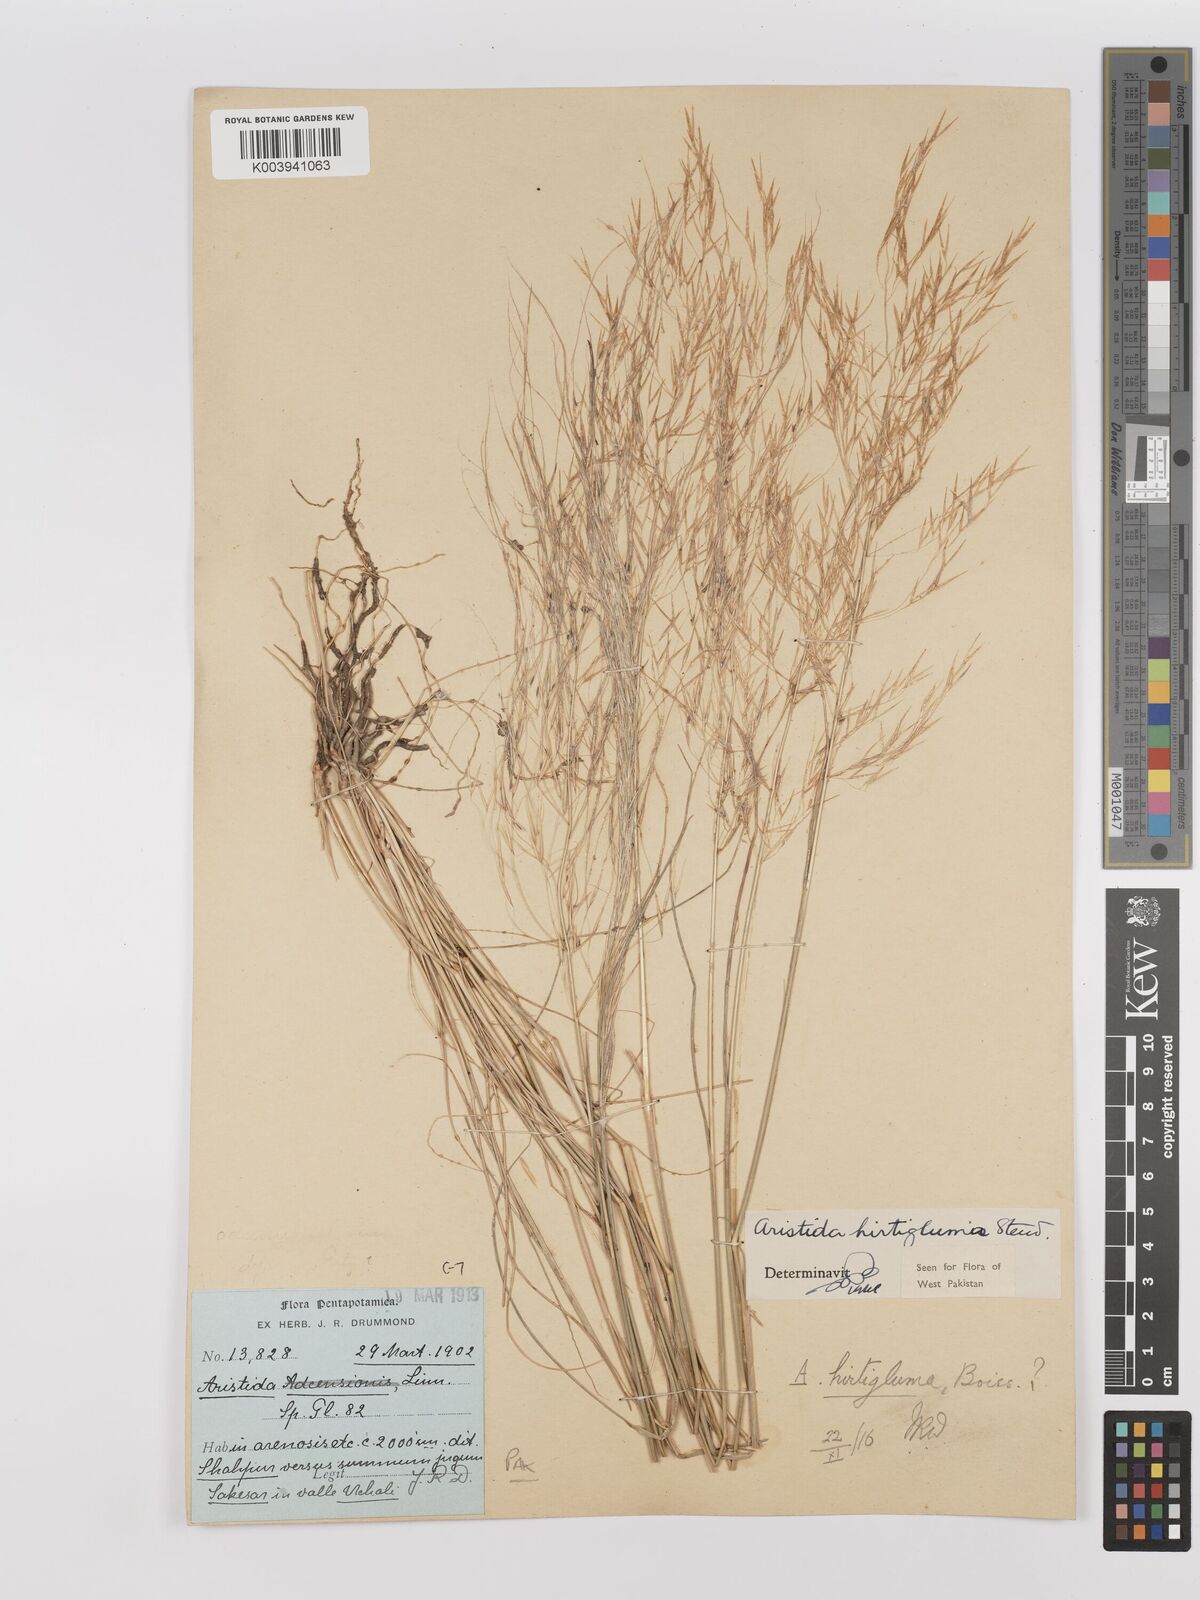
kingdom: Plantae
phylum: Tracheophyta
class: Liliopsida
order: Poales
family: Poaceae
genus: Stipagrostis
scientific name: Stipagrostis hirtigluma
